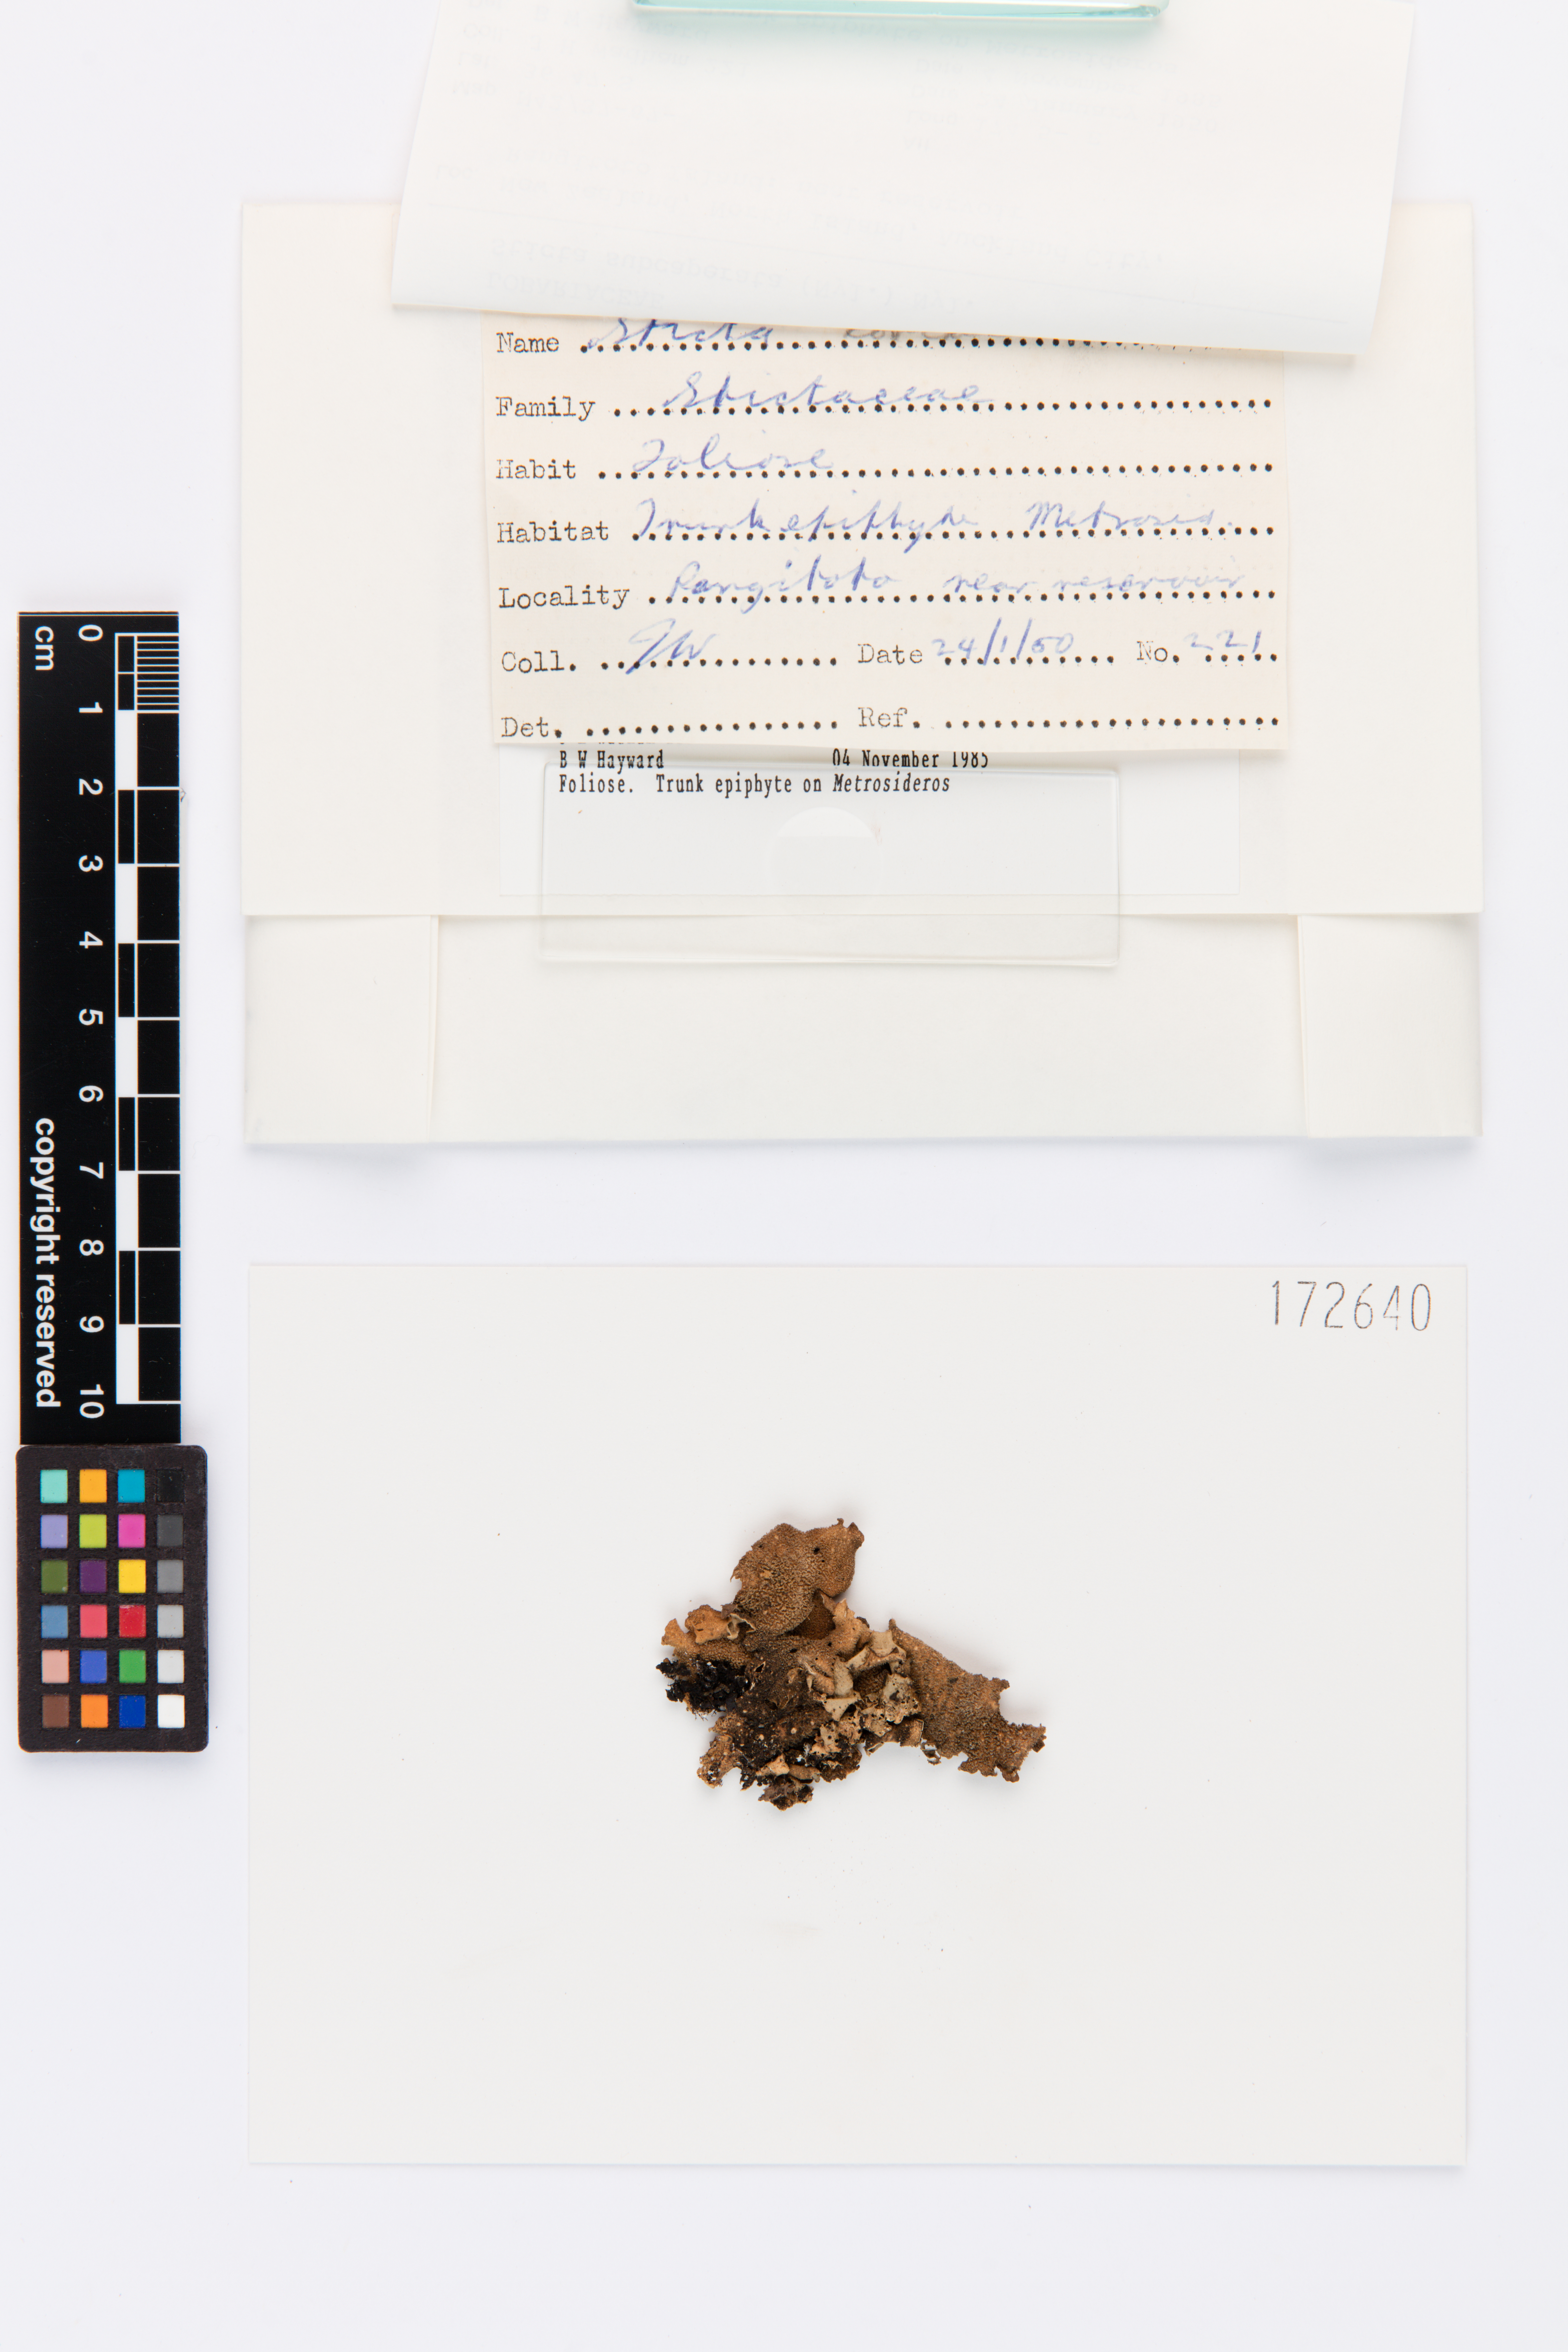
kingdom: Fungi
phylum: Ascomycota
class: Lecanoromycetes
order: Peltigerales
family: Lobariaceae
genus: Sticta
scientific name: Sticta subcaperata
